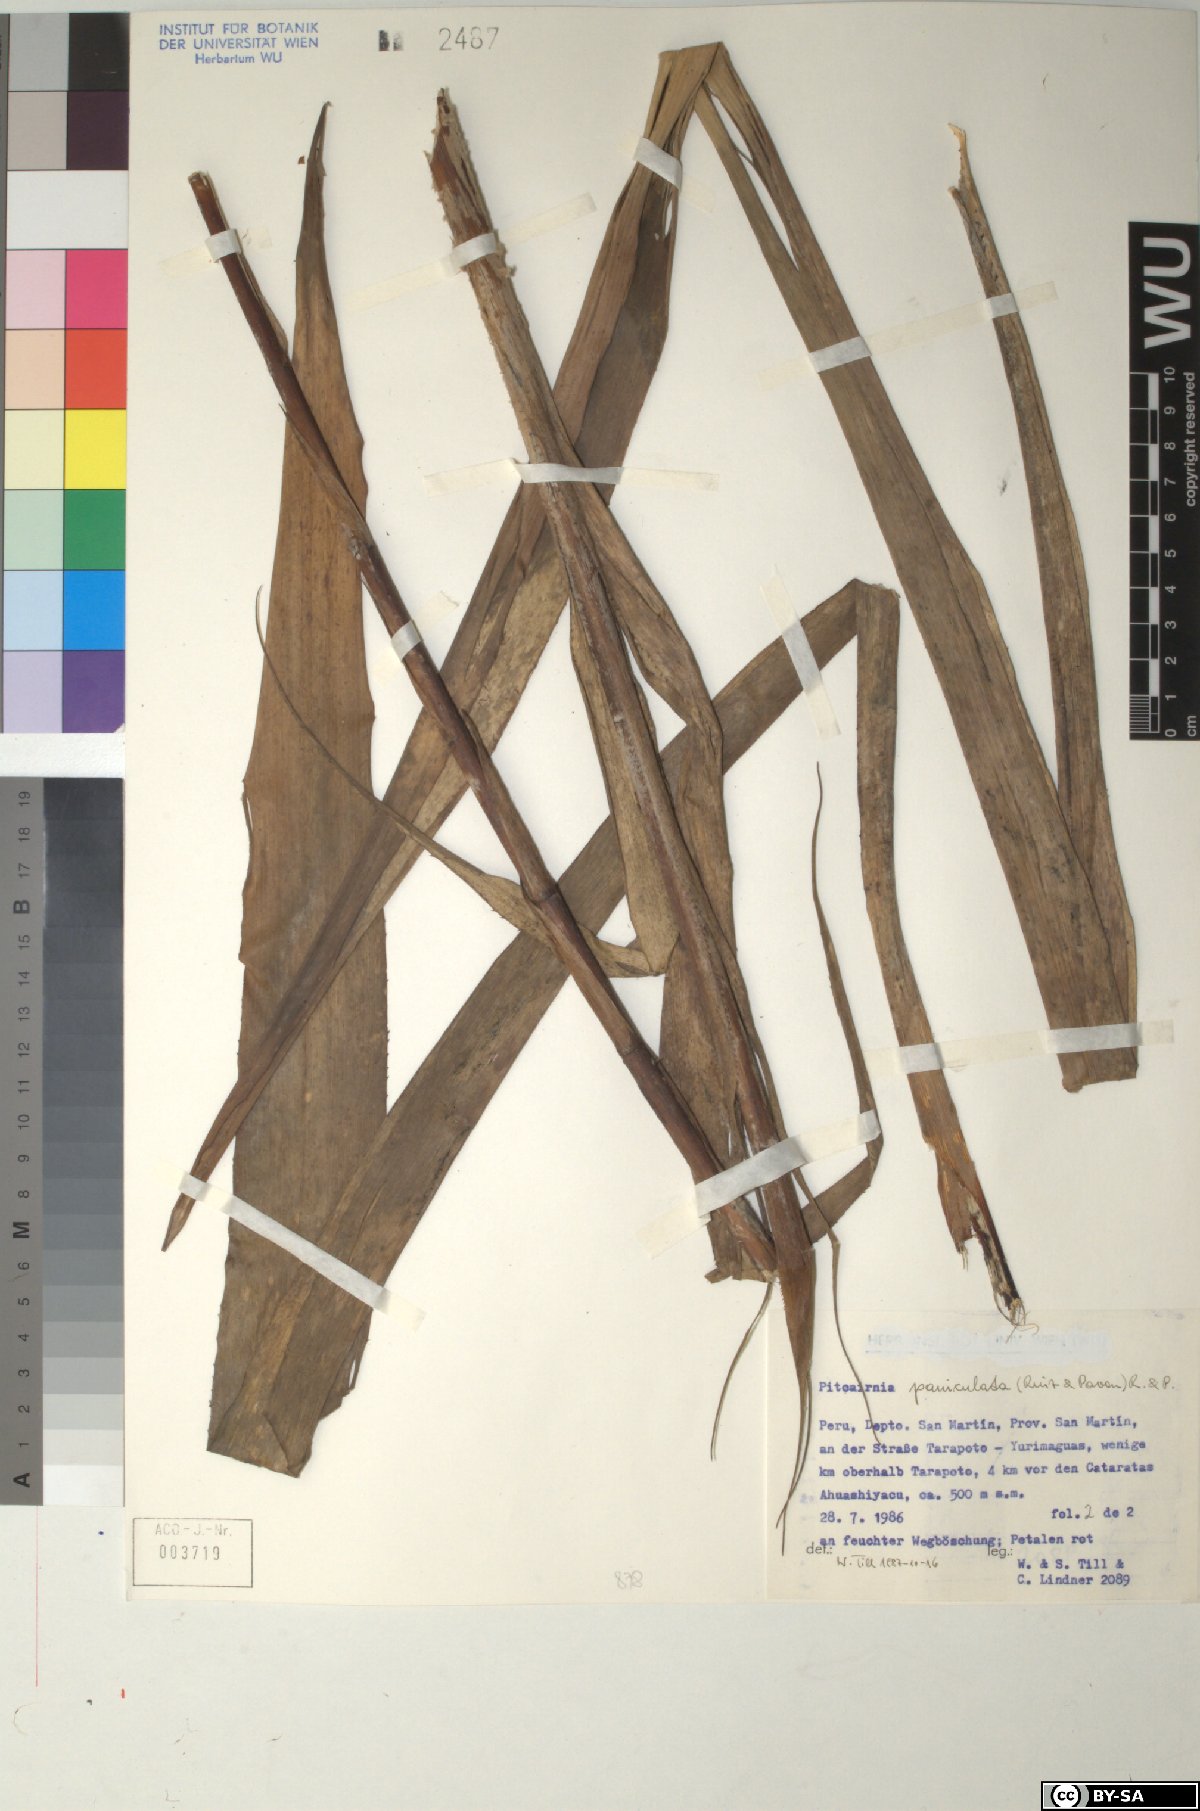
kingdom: Plantae
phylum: Tracheophyta
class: Liliopsida
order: Poales
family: Bromeliaceae
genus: Pitcairnia
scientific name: Pitcairnia paniculata
